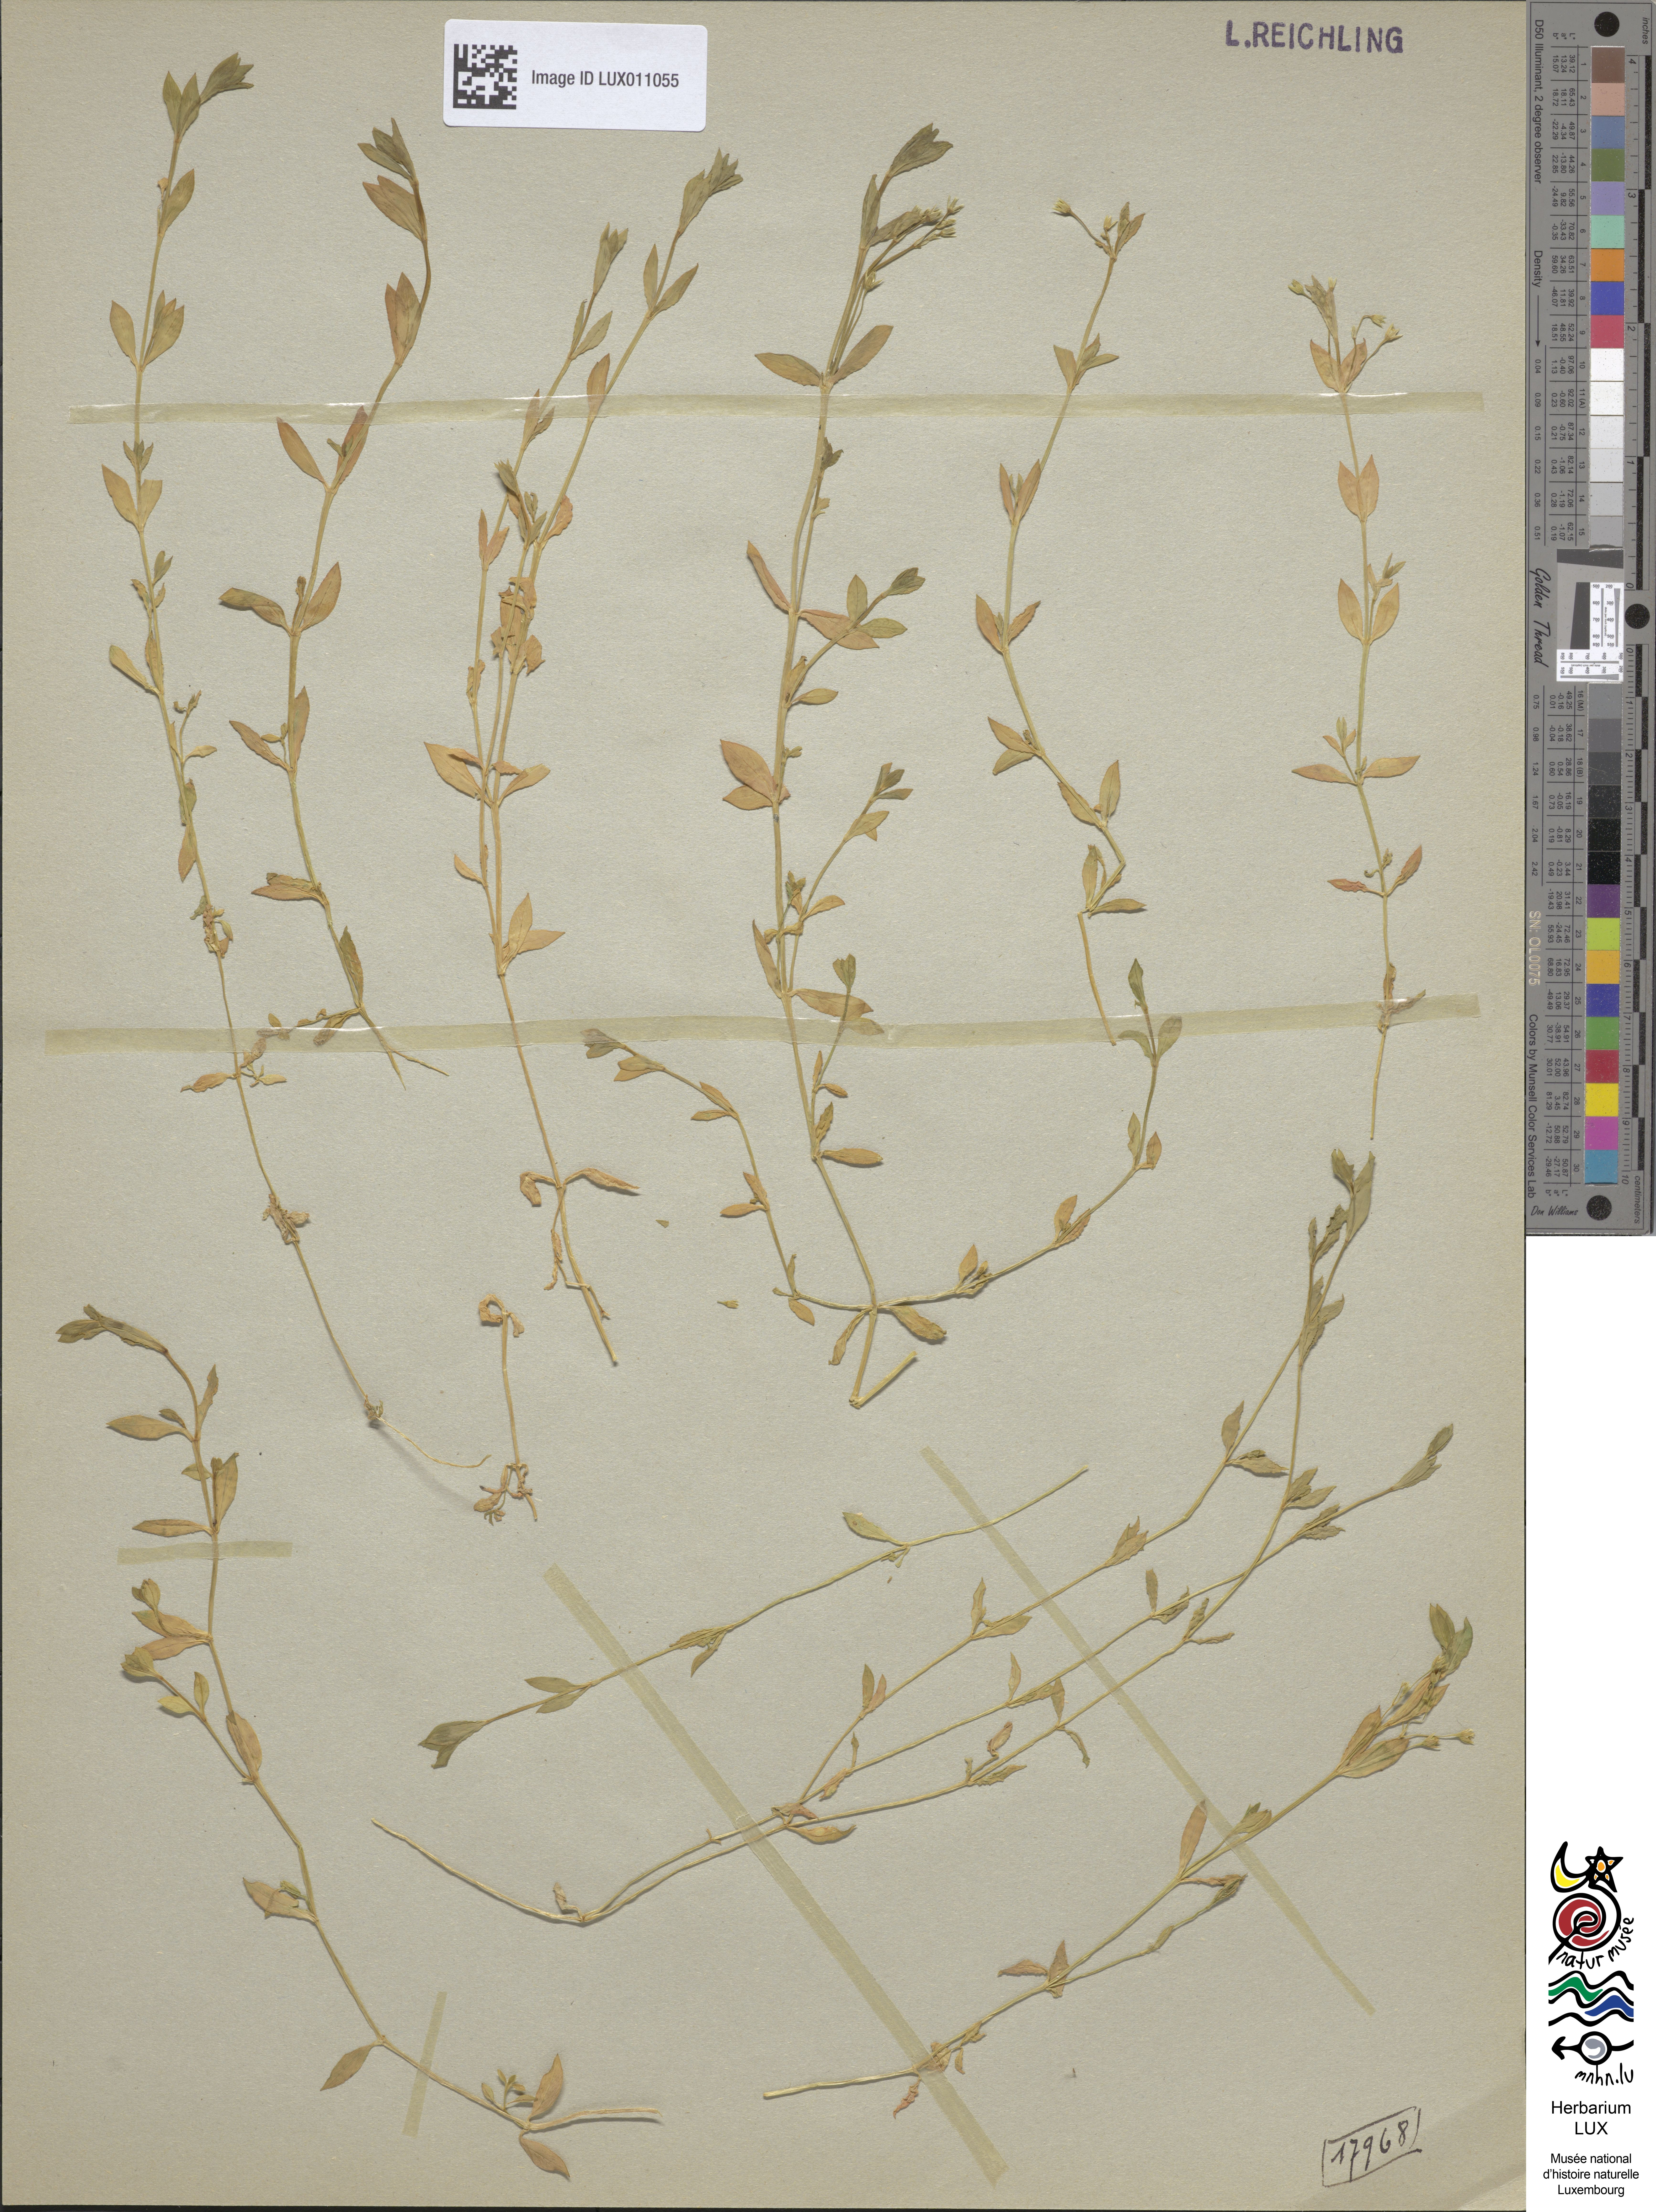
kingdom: Plantae
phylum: Tracheophyta
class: Magnoliopsida
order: Caryophyllales
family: Caryophyllaceae
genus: Stellaria
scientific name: Stellaria alsine
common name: Bog stitchwort
